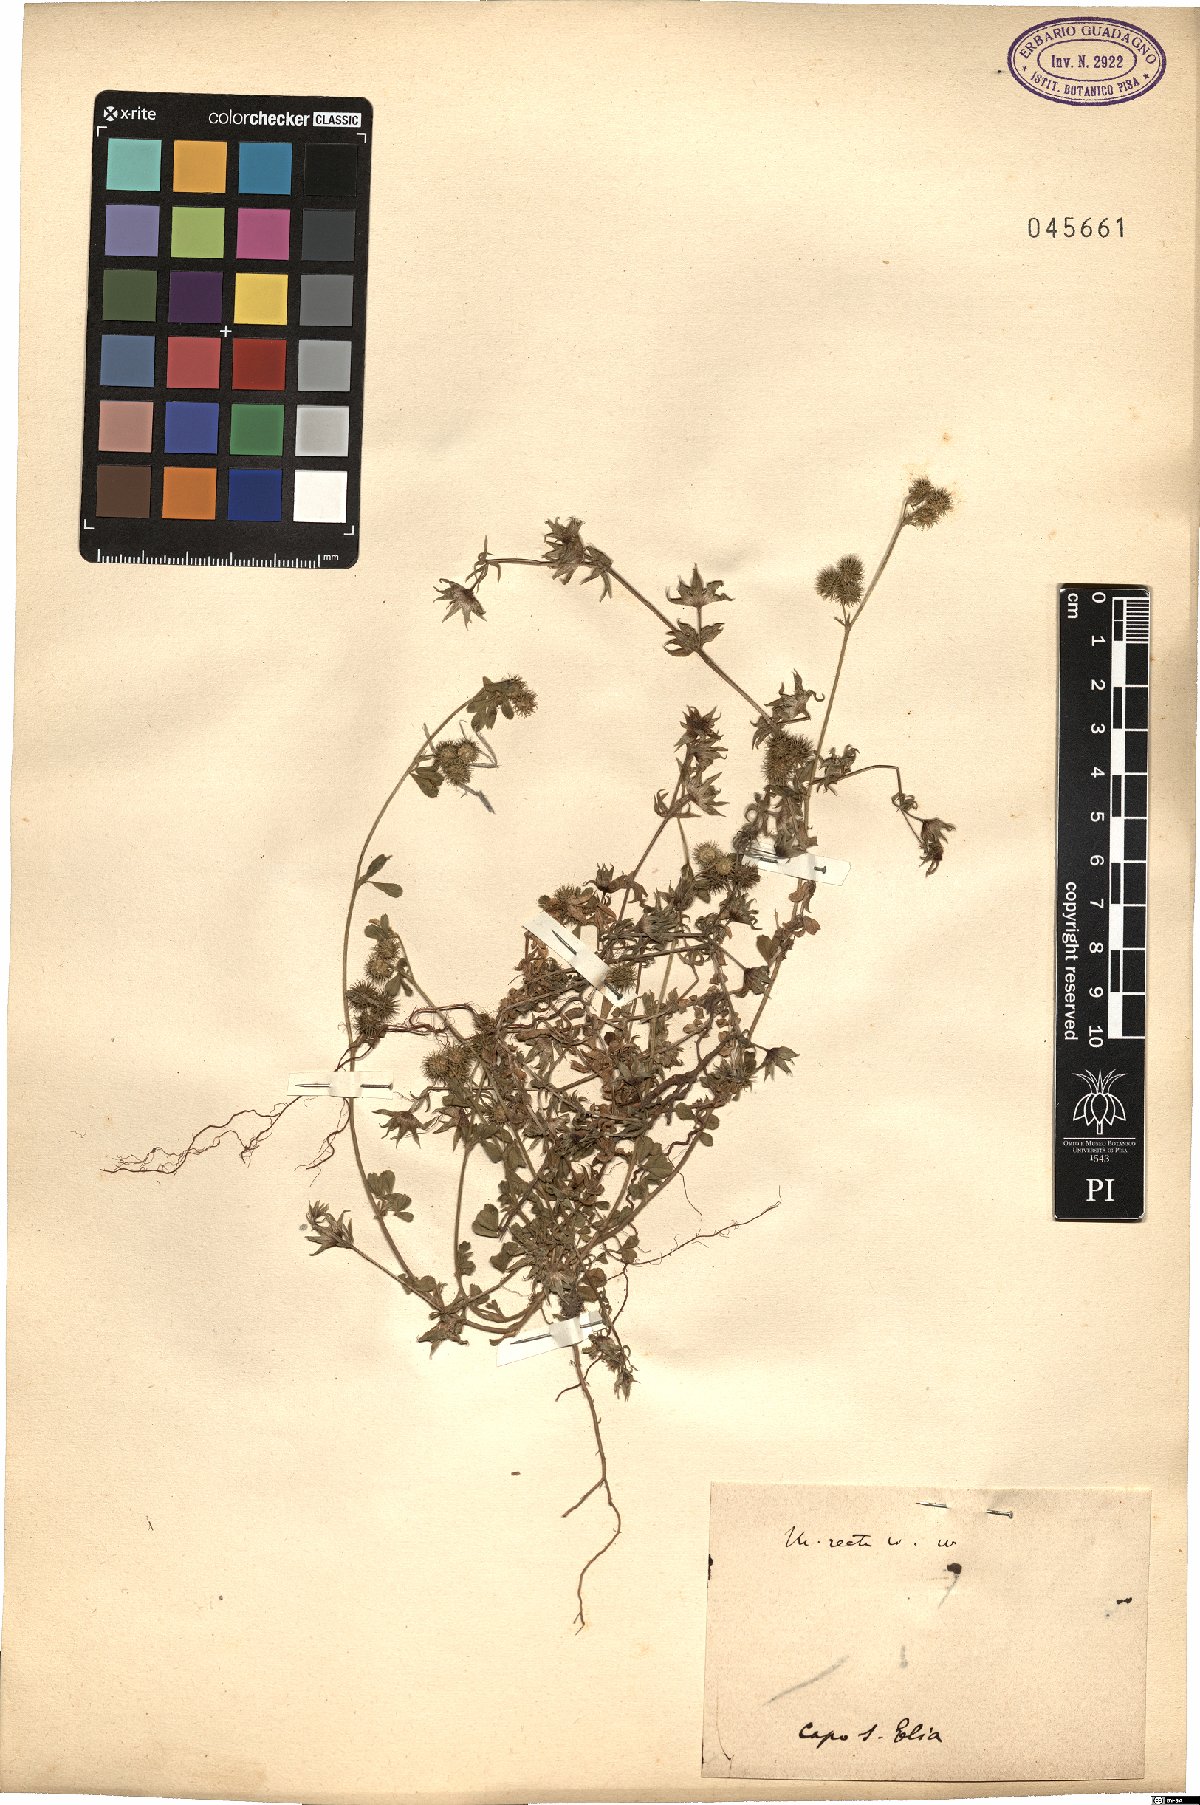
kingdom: Plantae
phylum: Tracheophyta
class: Magnoliopsida
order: Fabales
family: Fabaceae
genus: Medicago
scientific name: Medicago minima
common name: Little bur-clover
